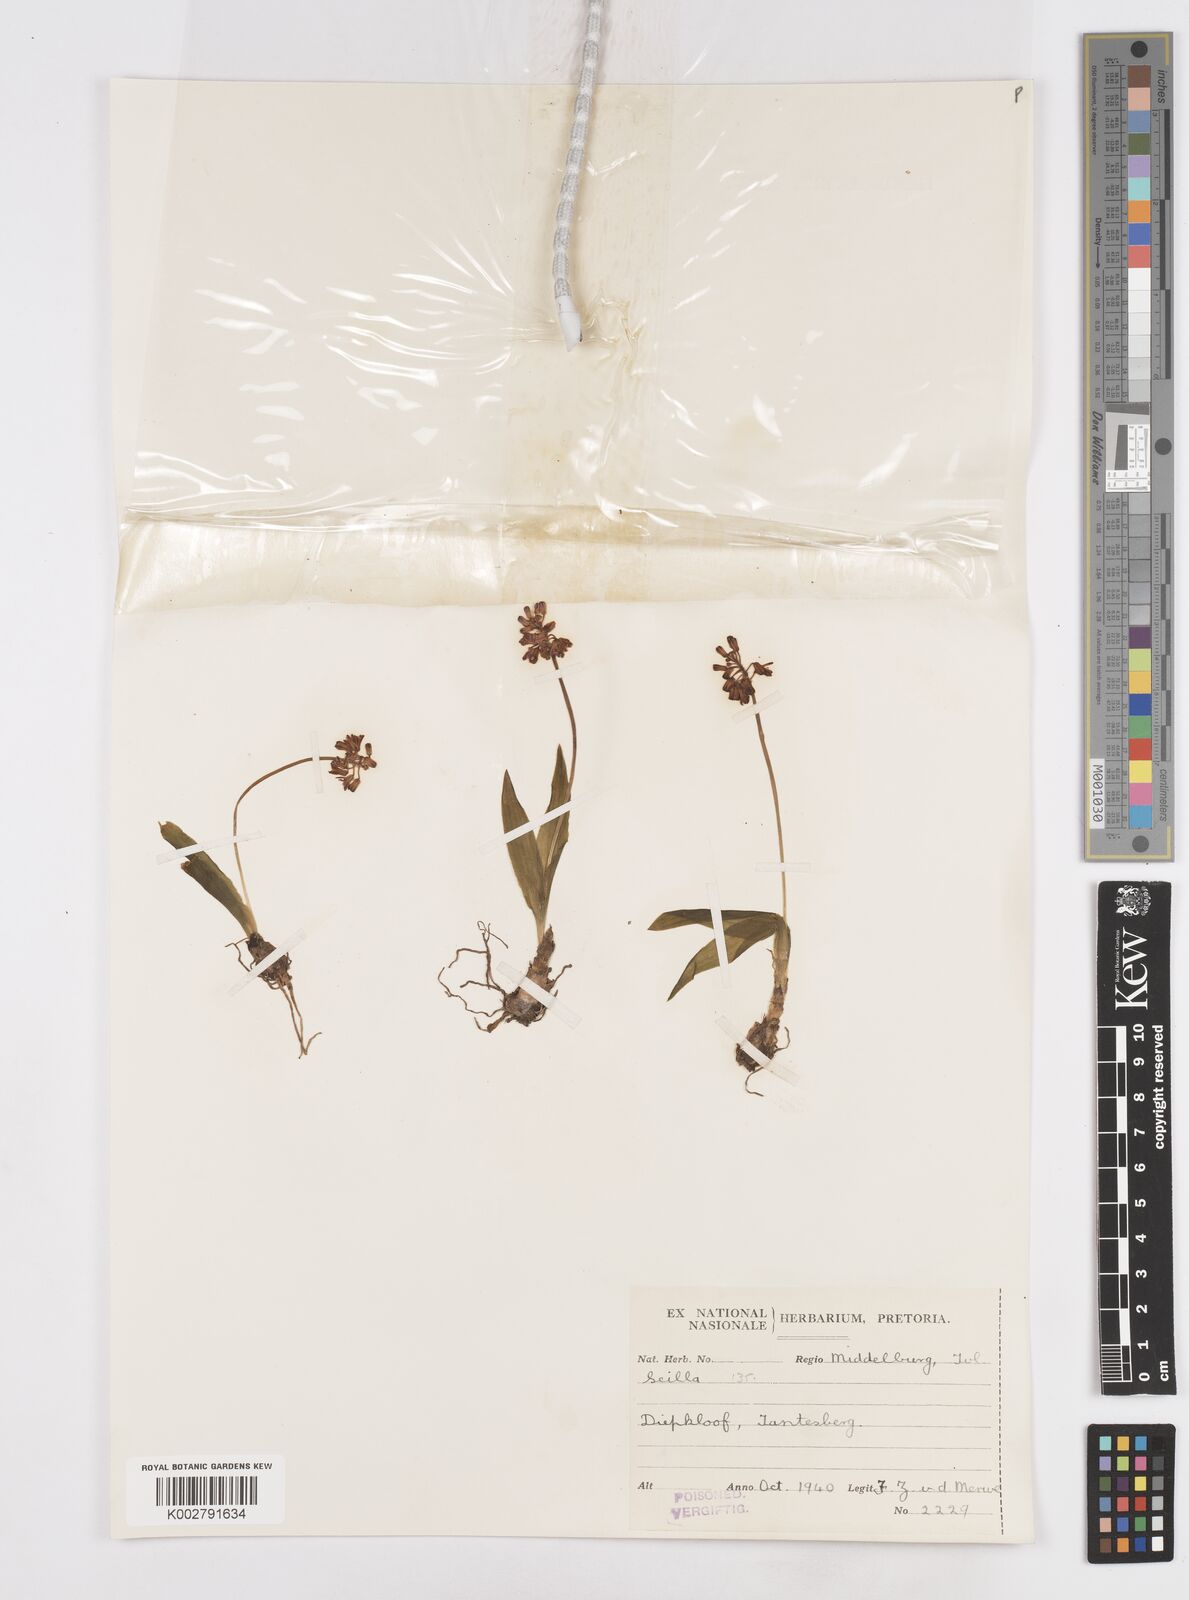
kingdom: Plantae
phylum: Tracheophyta
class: Liliopsida
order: Asparagales
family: Asparagaceae
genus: Scilla
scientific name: Scilla
